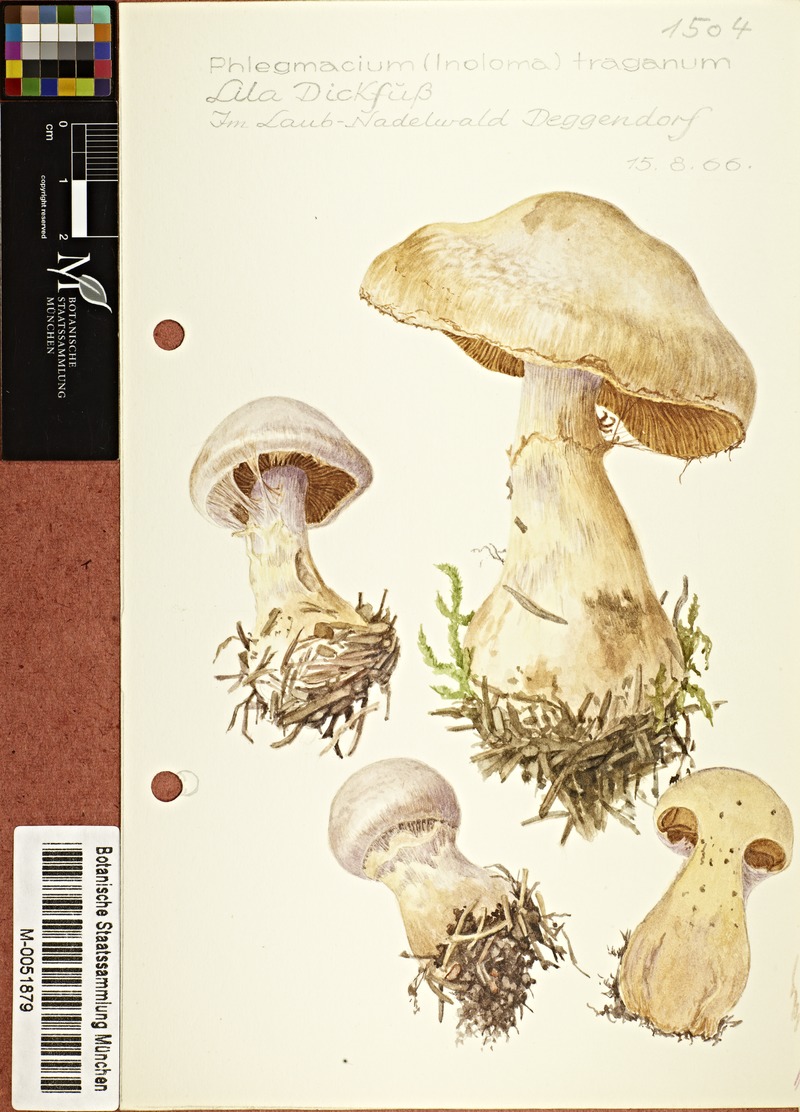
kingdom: Fungi
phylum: Basidiomycota
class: Agaricomycetes
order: Agaricales
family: Cortinariaceae
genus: Cortinarius
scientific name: Cortinarius traganus
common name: Gassy webcap
